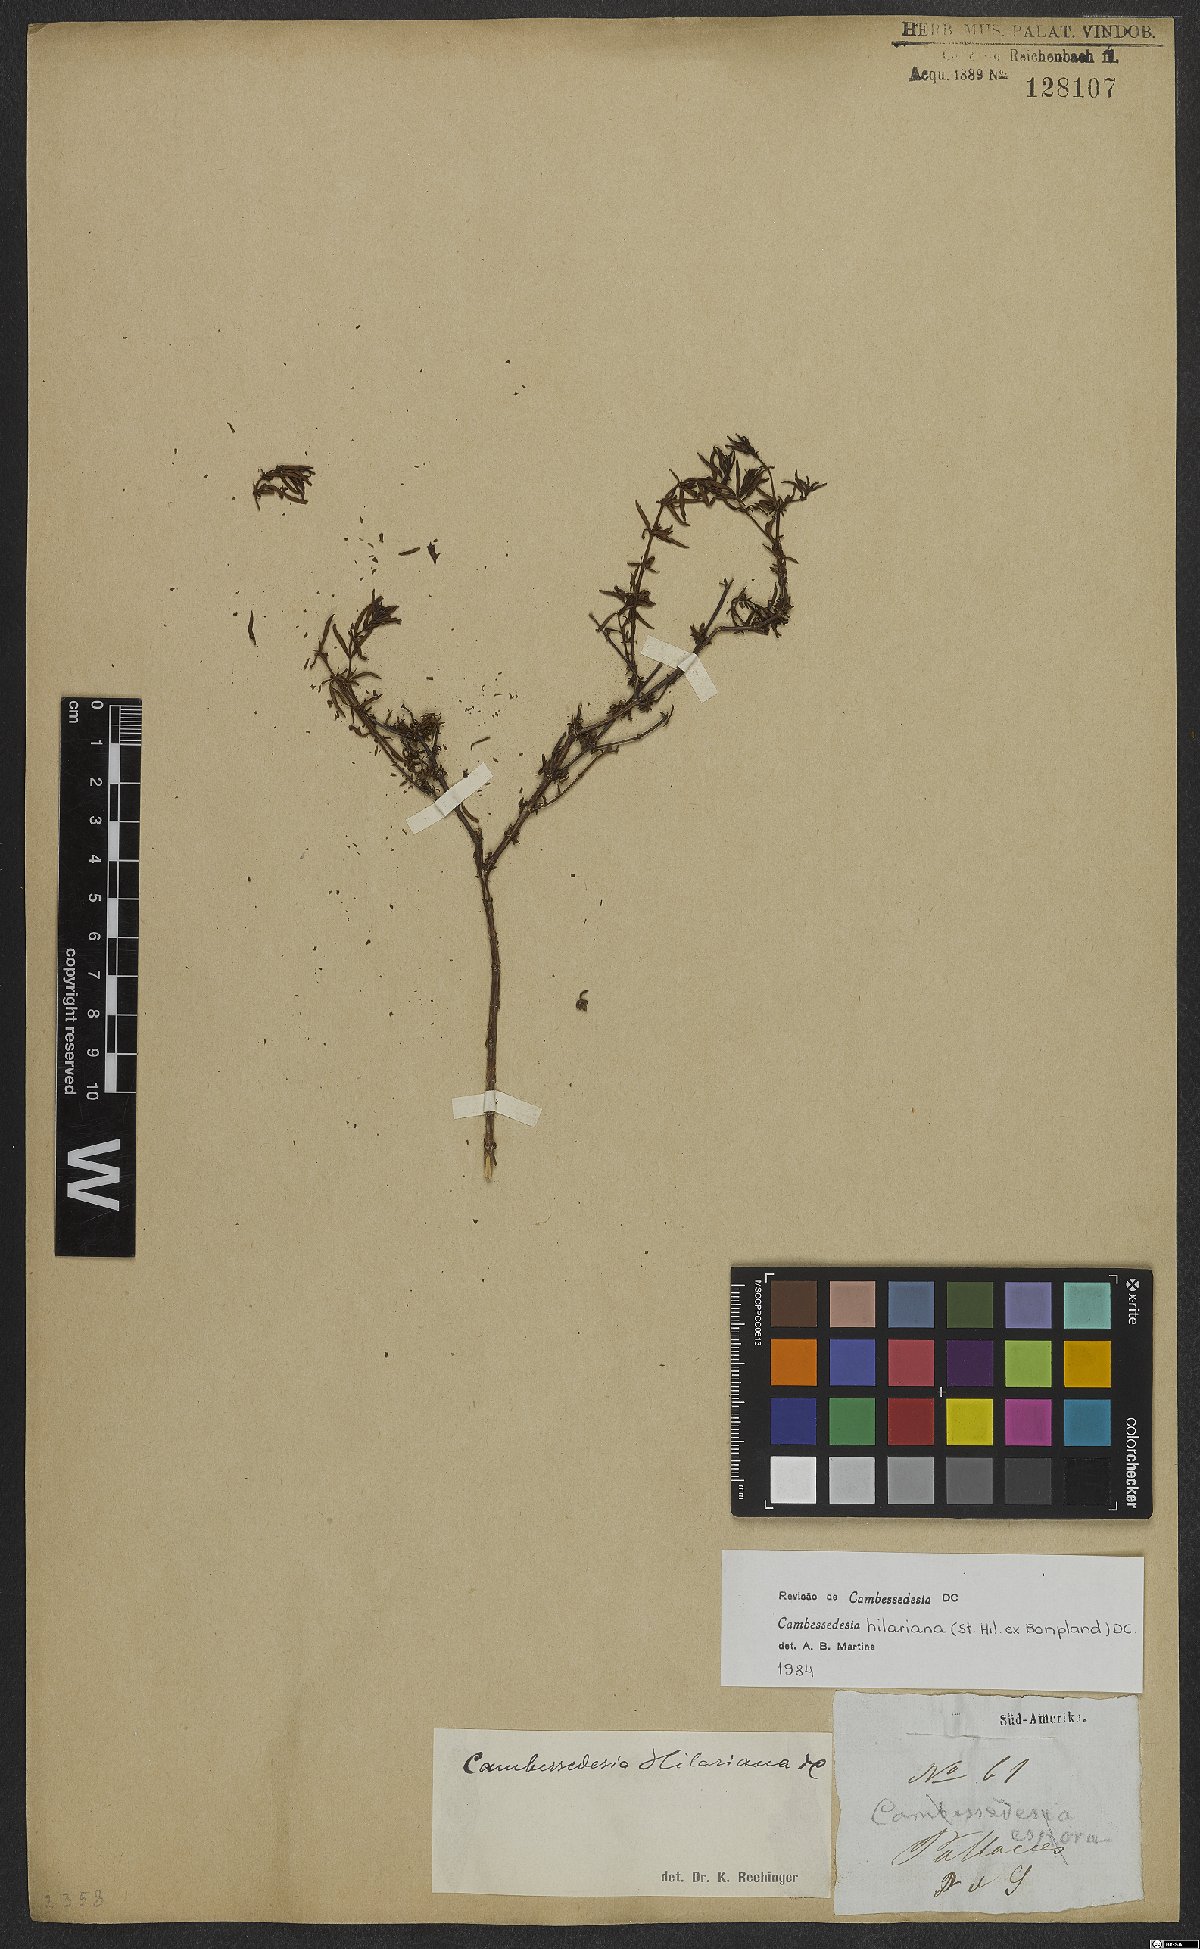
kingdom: Plantae
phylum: Tracheophyta
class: Magnoliopsida
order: Myrtales
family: Melastomataceae
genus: Cambessedesia
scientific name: Cambessedesia hilariana
